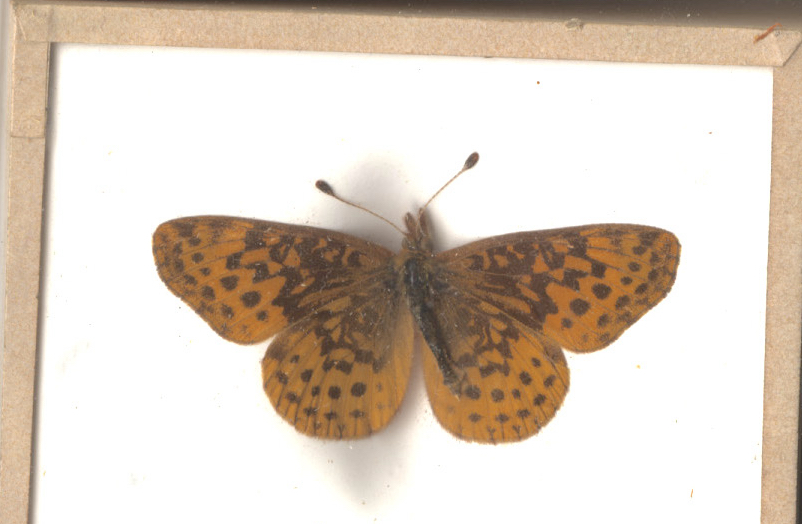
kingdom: Animalia
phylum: Arthropoda
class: Insecta
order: Lepidoptera
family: Nymphalidae
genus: Clossiana
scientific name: Clossiana toddi
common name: Meadow Fritillary
